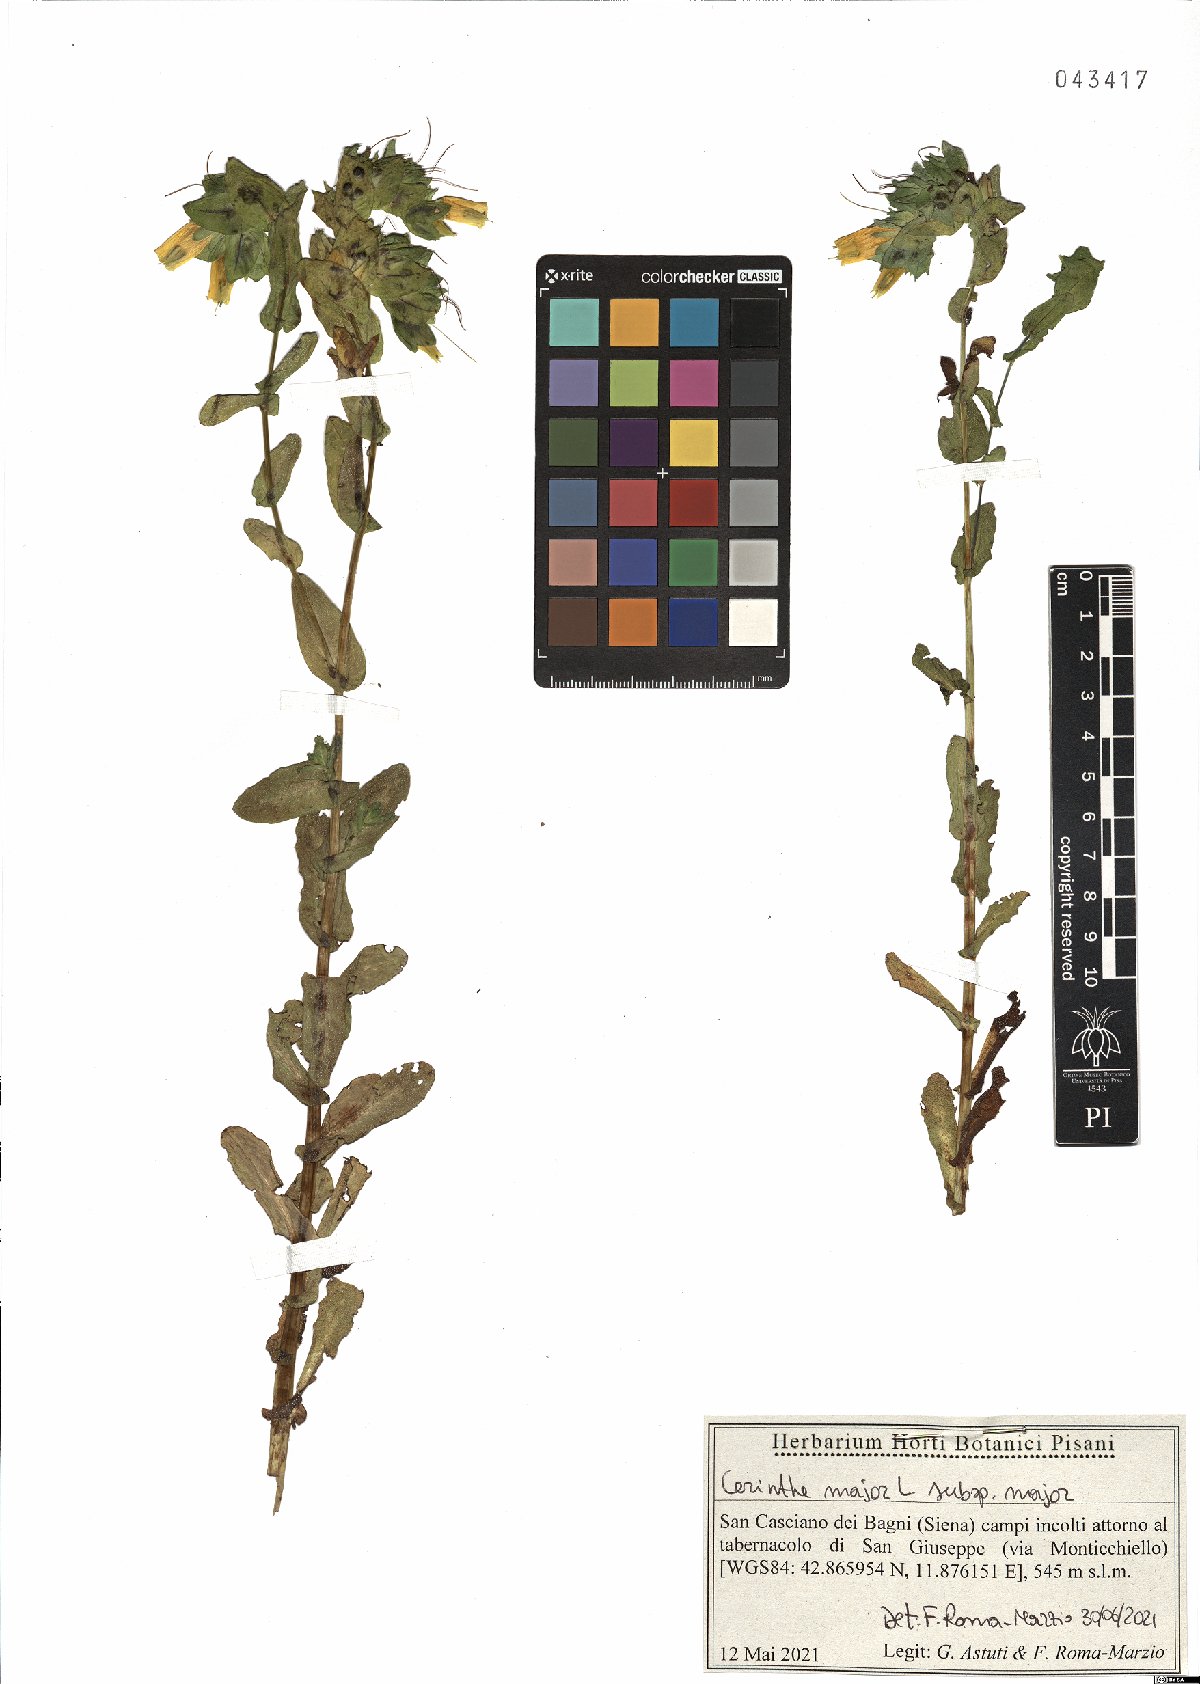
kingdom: Plantae
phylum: Tracheophyta
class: Magnoliopsida
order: Boraginales
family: Boraginaceae
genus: Cerinthe
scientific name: Cerinthe major
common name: Greater honeywort
